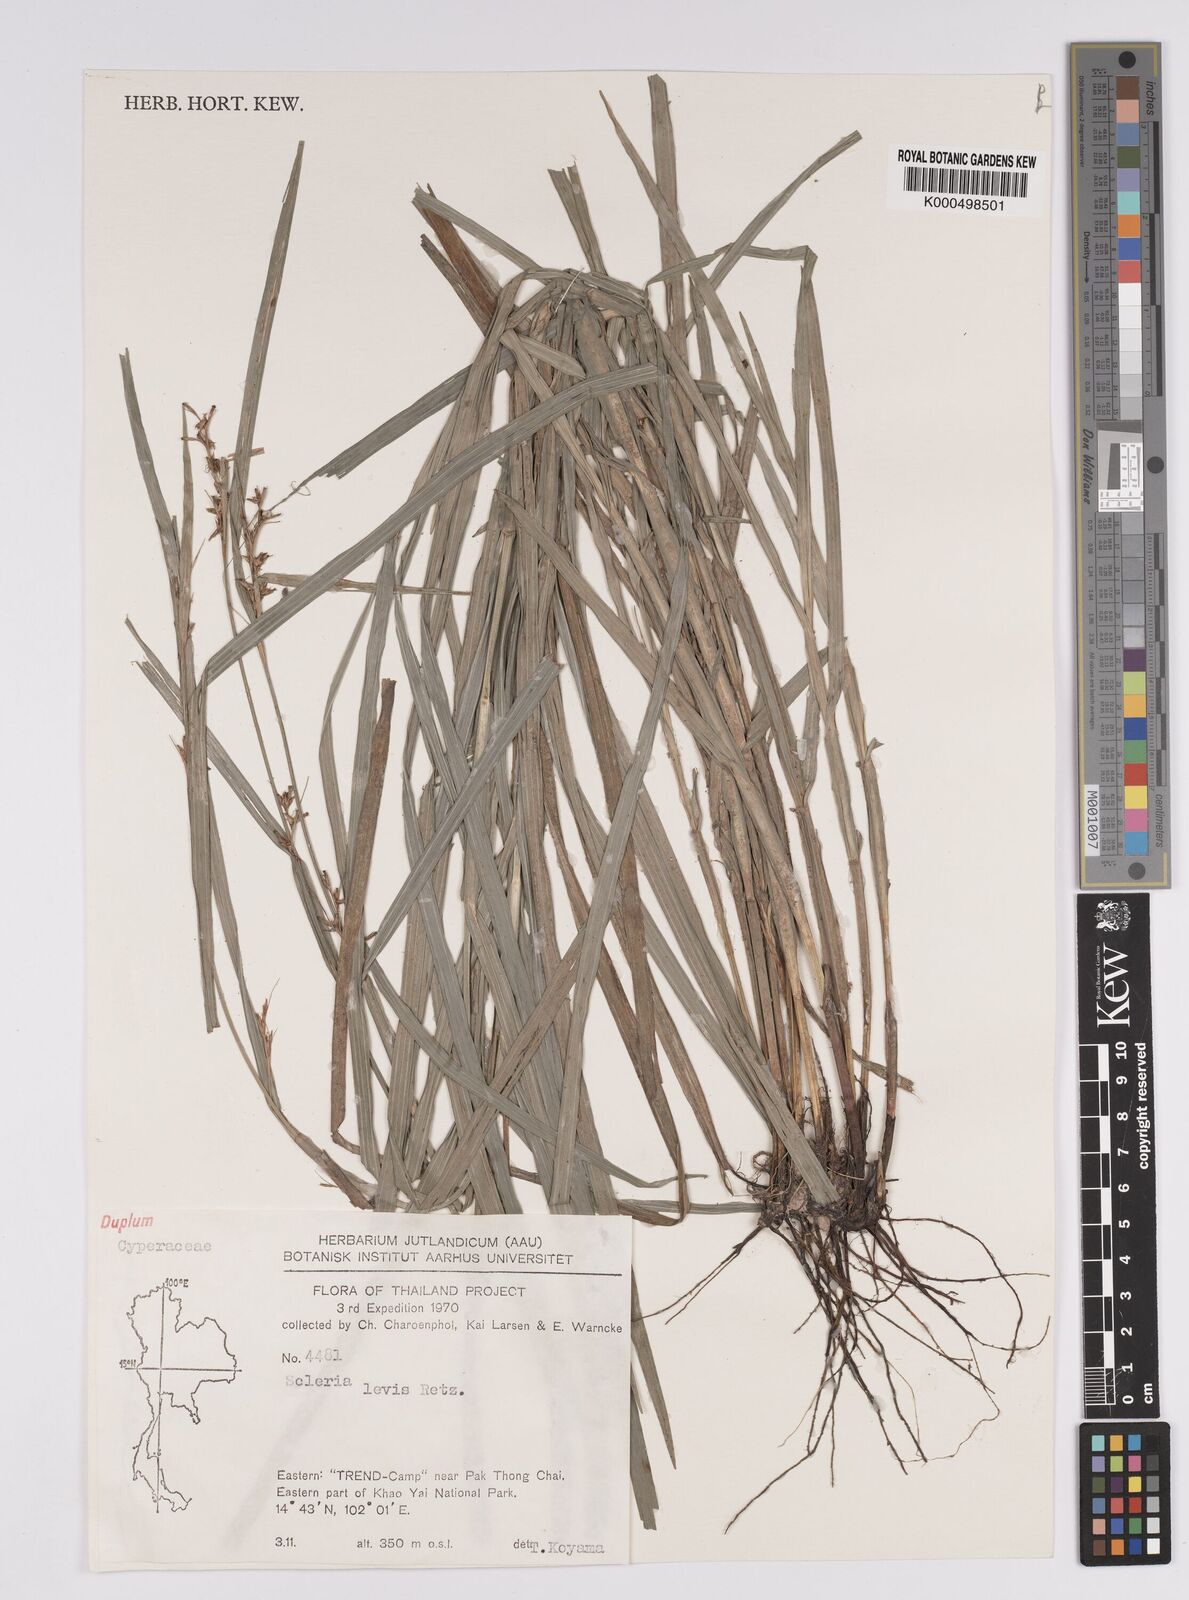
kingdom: Plantae
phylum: Tracheophyta
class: Liliopsida
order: Poales
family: Cyperaceae
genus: Scleria
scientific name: Scleria levis
